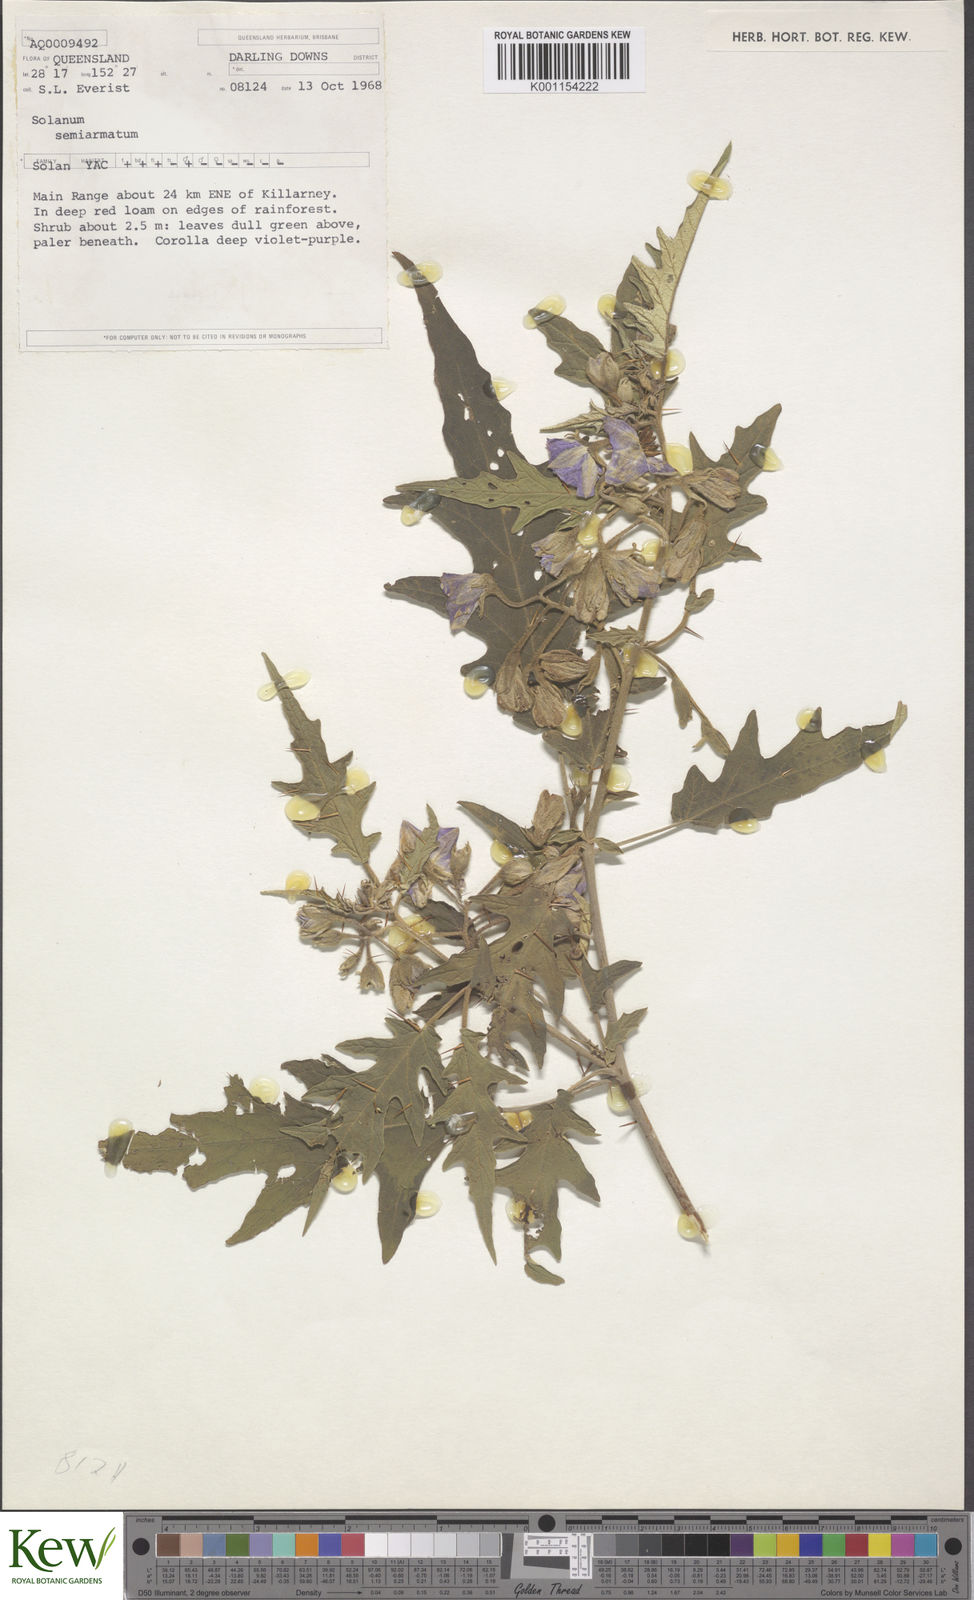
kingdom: Plantae
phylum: Tracheophyta
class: Magnoliopsida
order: Solanales
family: Solanaceae
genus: Solanum
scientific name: Solanum semiarmatum
